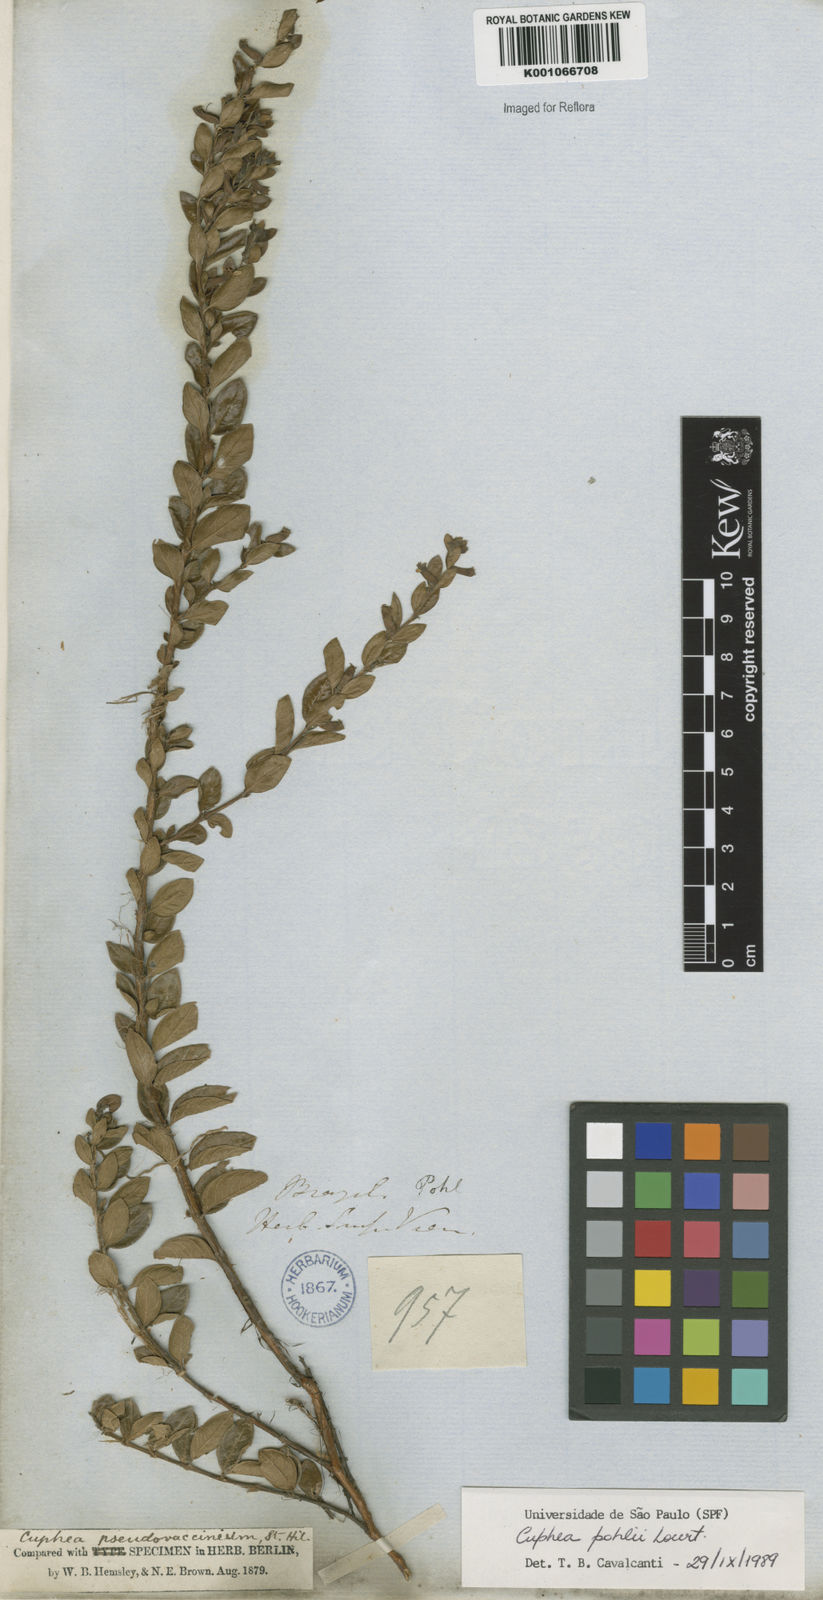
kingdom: Plantae
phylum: Tracheophyta
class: Magnoliopsida
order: Myrtales
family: Lythraceae
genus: Cuphea
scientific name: Cuphea pohlii
